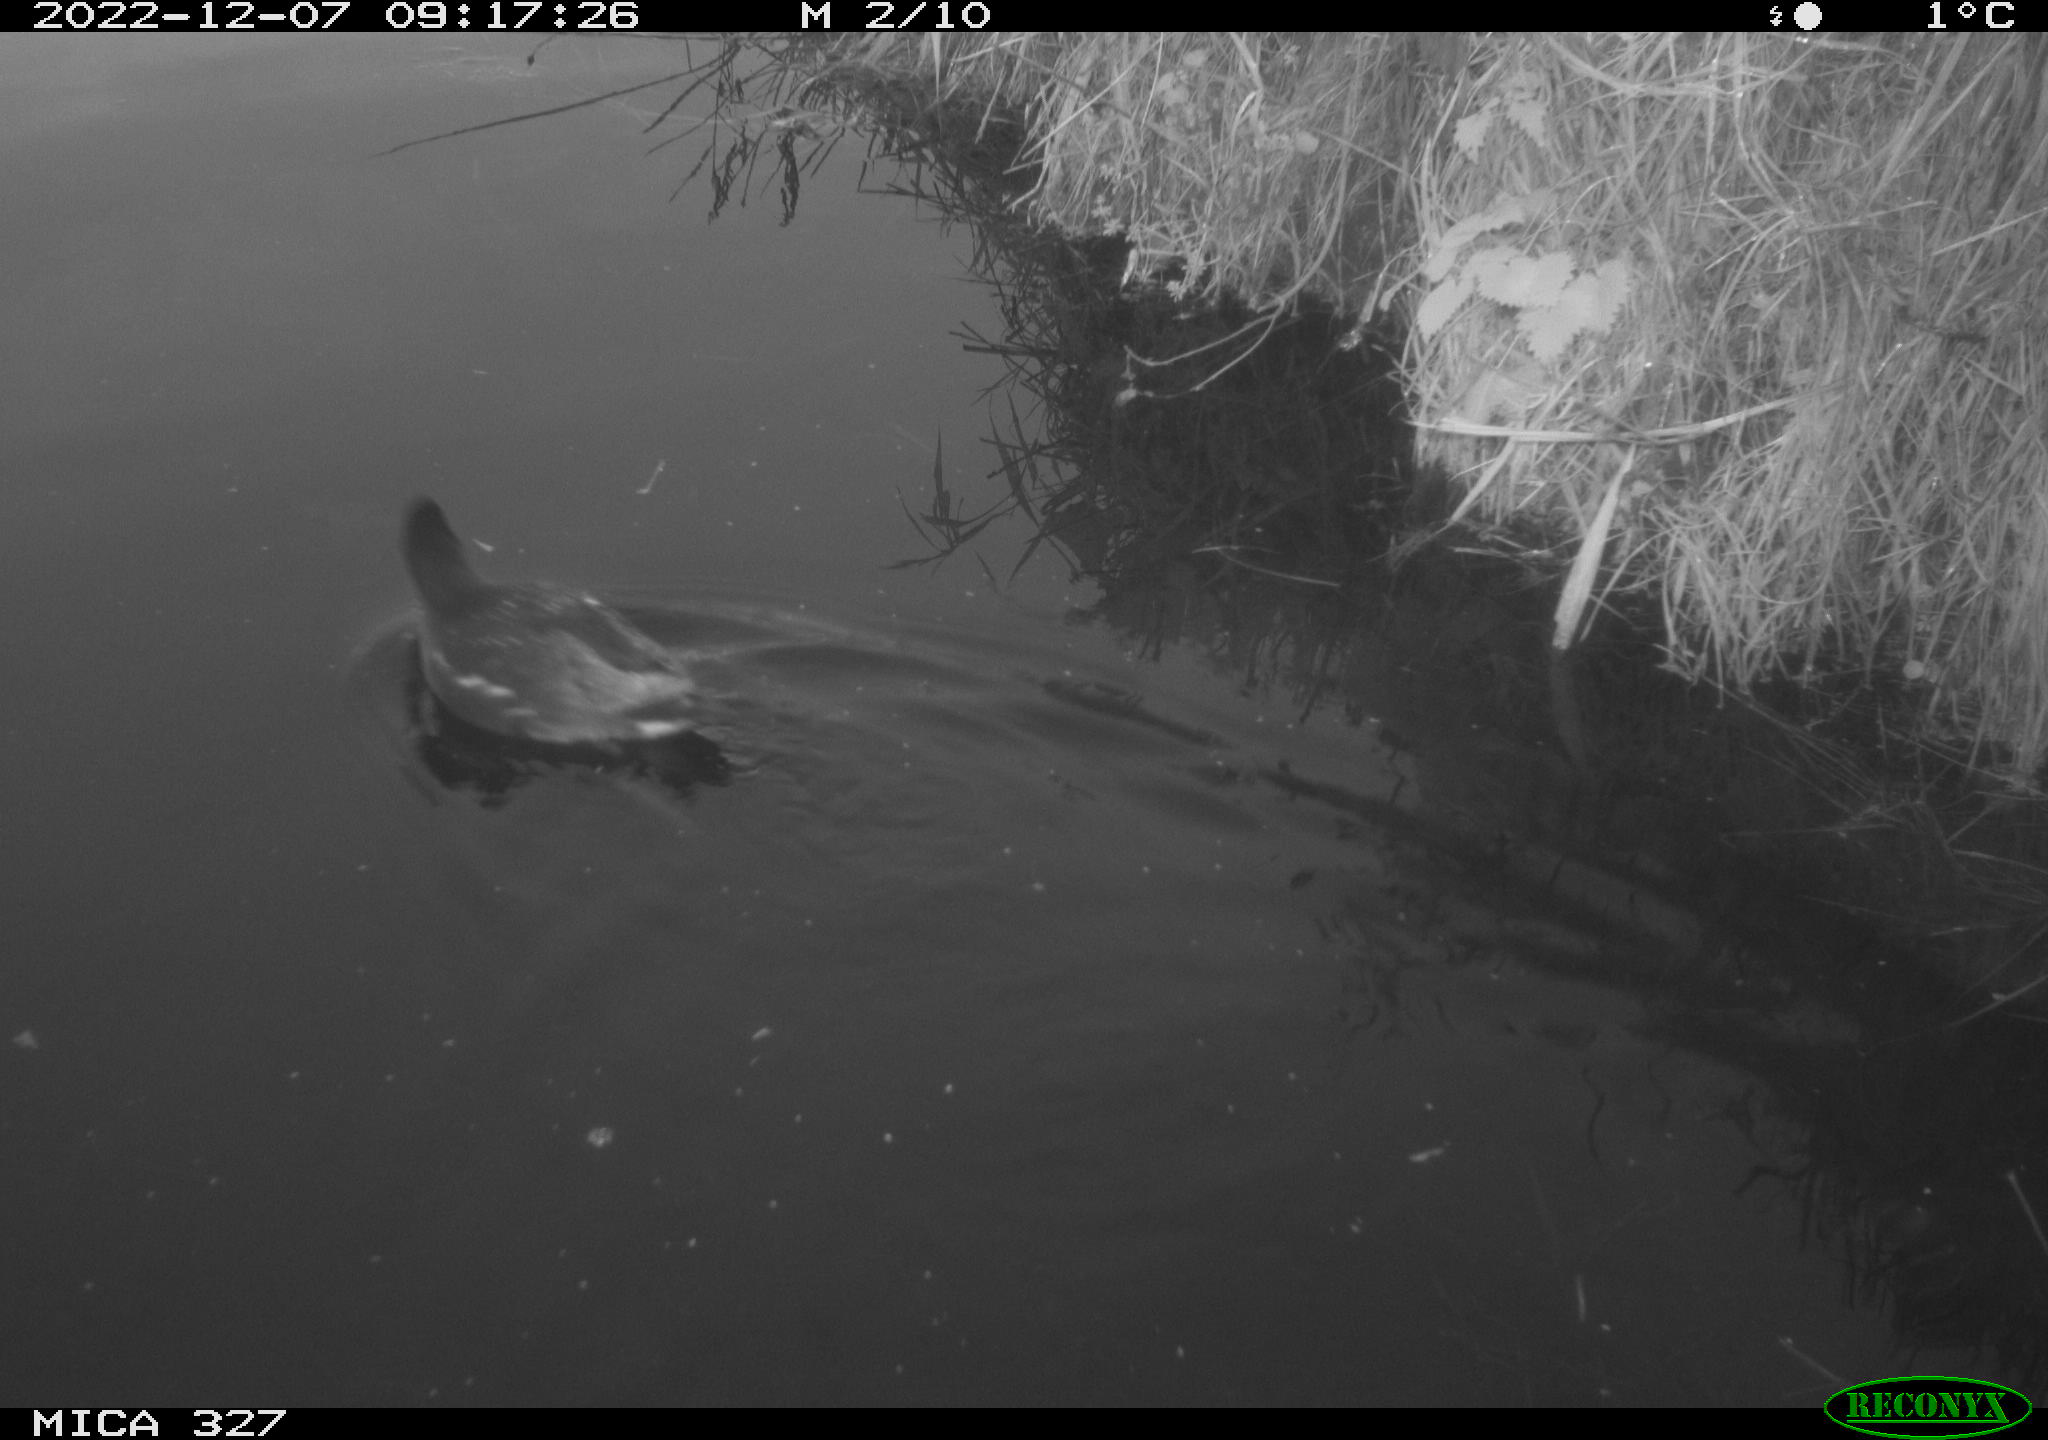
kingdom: Animalia
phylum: Chordata
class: Aves
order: Gruiformes
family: Rallidae
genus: Gallinula
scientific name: Gallinula chloropus
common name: Common moorhen
